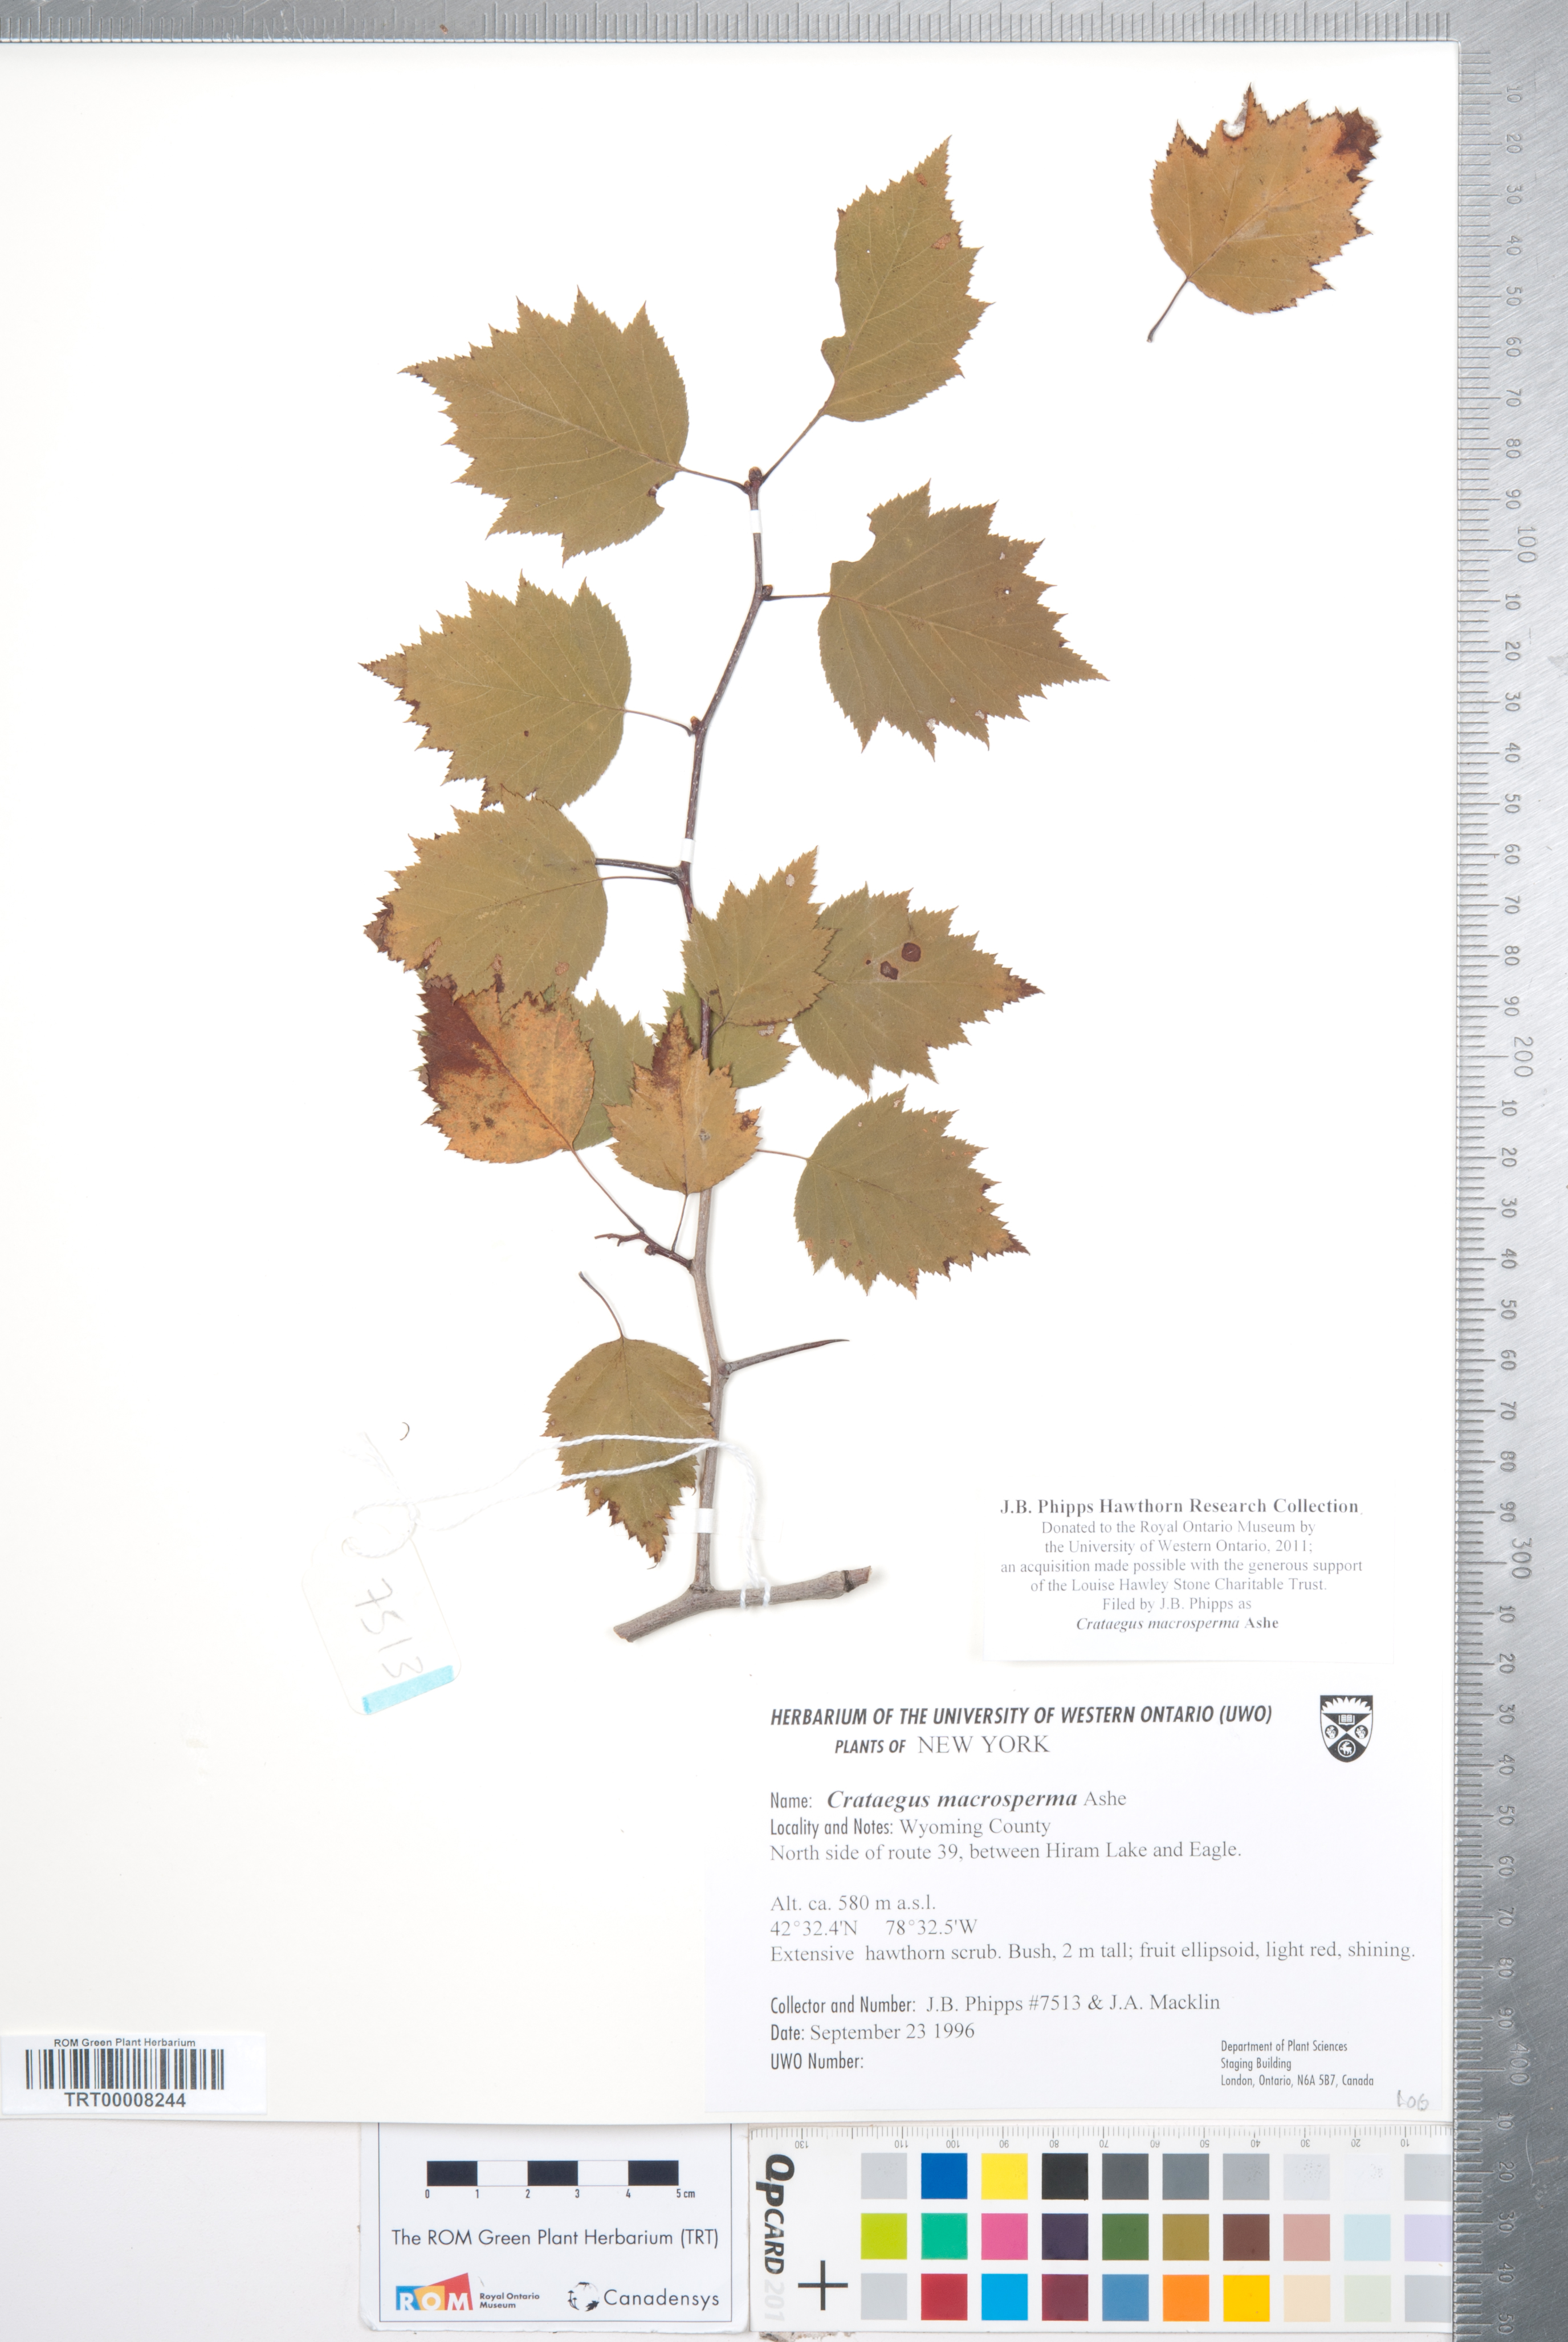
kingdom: Plantae
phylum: Tracheophyta
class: Magnoliopsida
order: Rosales
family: Rosaceae
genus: Crataegus
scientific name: Crataegus macrosperma
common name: Variable hawthorn
